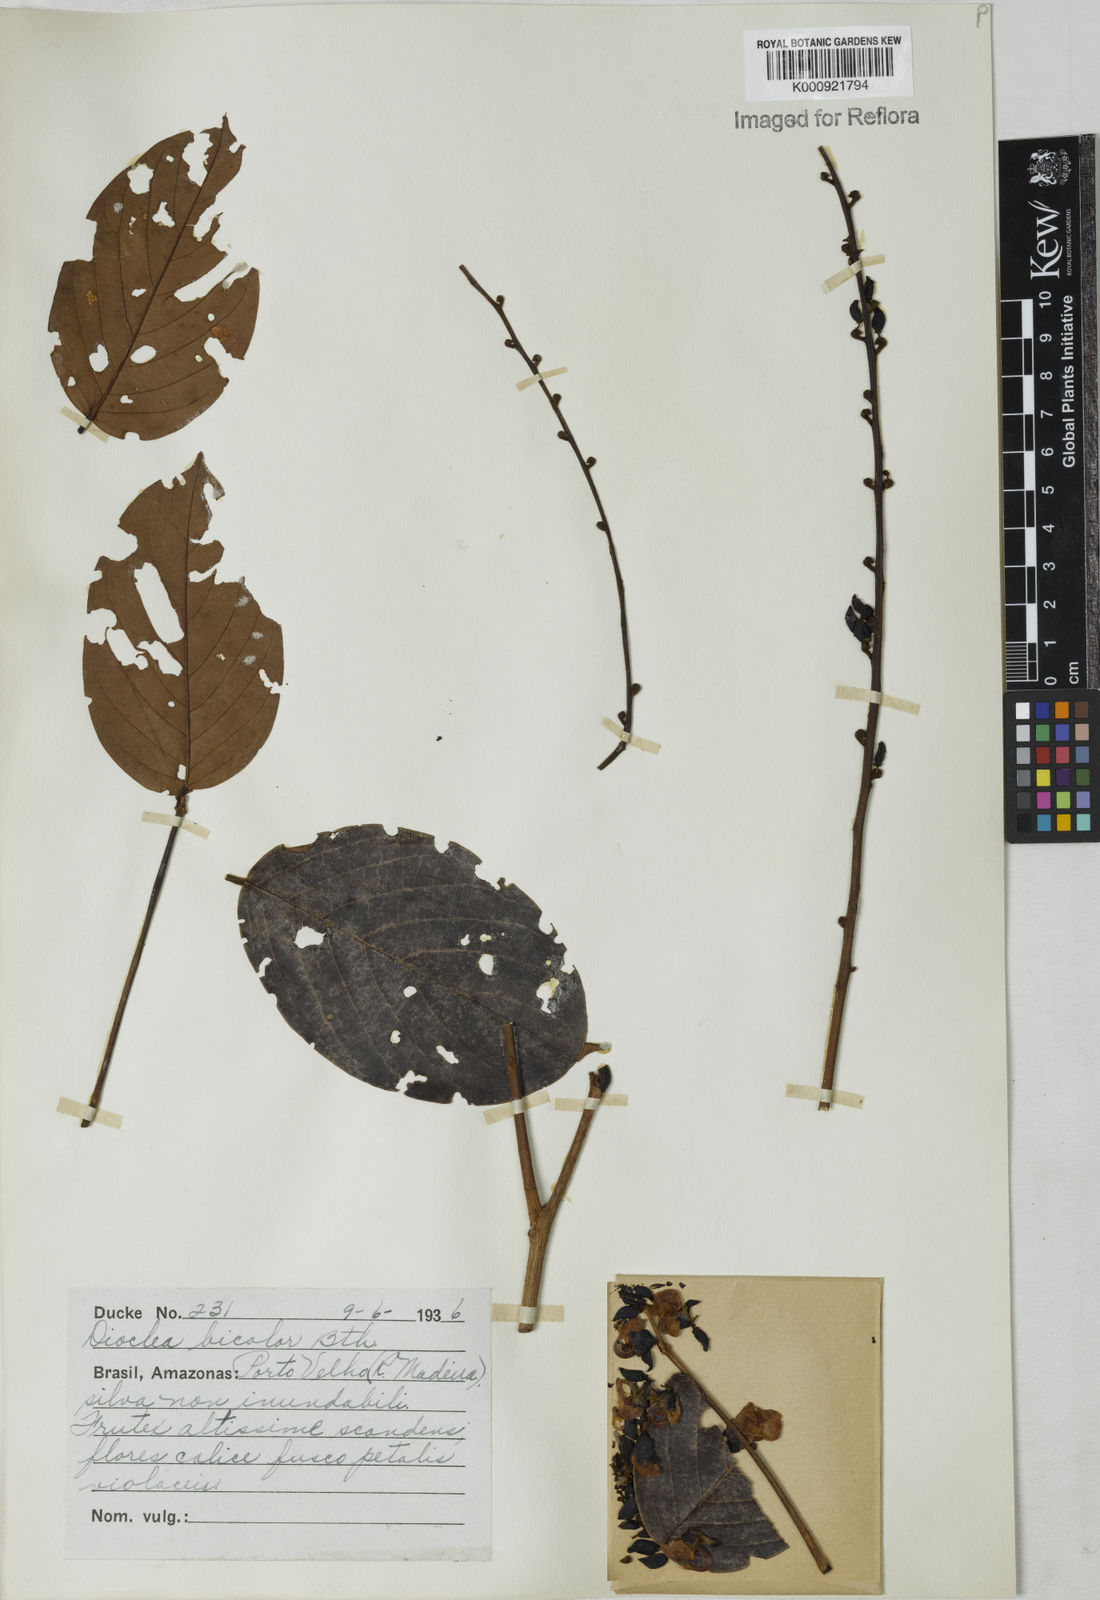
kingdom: Plantae
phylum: Tracheophyta
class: Magnoliopsida
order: Fabales
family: Fabaceae
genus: Macropsychanthus
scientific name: Macropsychanthus bicolor
